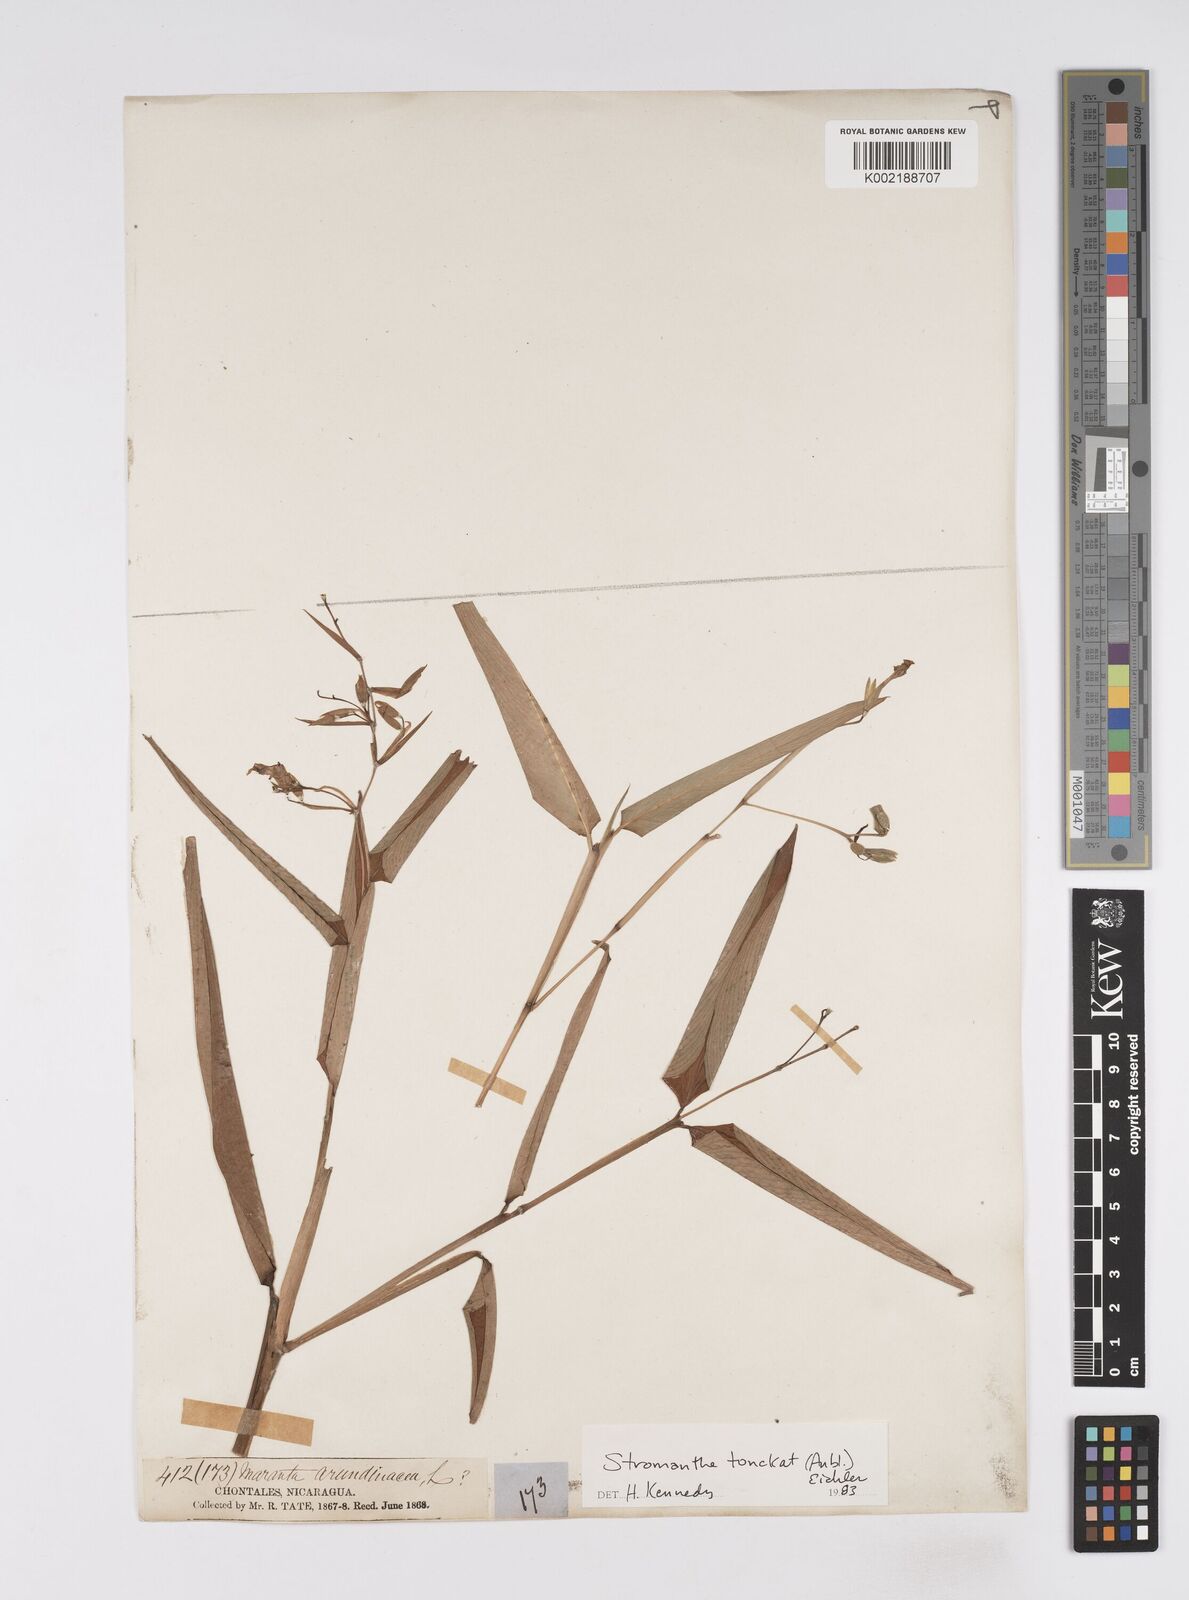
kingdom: Plantae
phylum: Tracheophyta
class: Liliopsida
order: Zingiberales
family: Marantaceae
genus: Stromanthe
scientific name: Stromanthe tonckat
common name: Stromanthe
